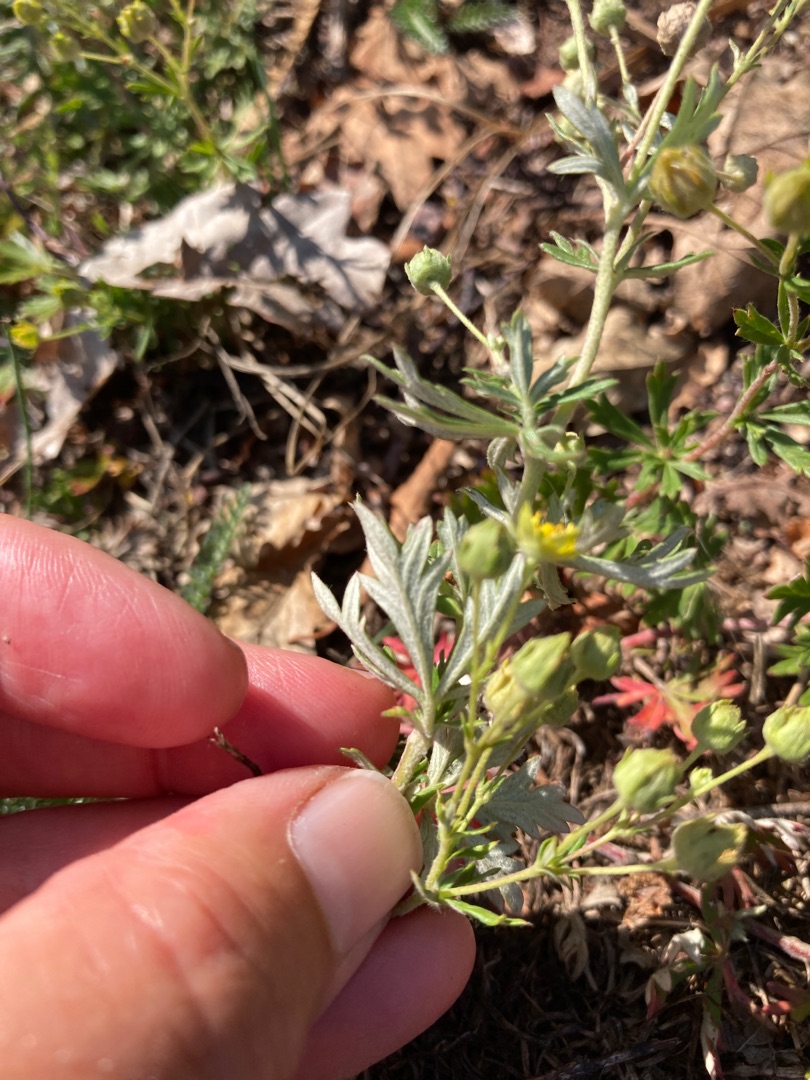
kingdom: Plantae
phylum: Tracheophyta
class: Magnoliopsida
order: Rosales
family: Rosaceae
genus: Potentilla
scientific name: Potentilla argentea
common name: Sølv-potentil
